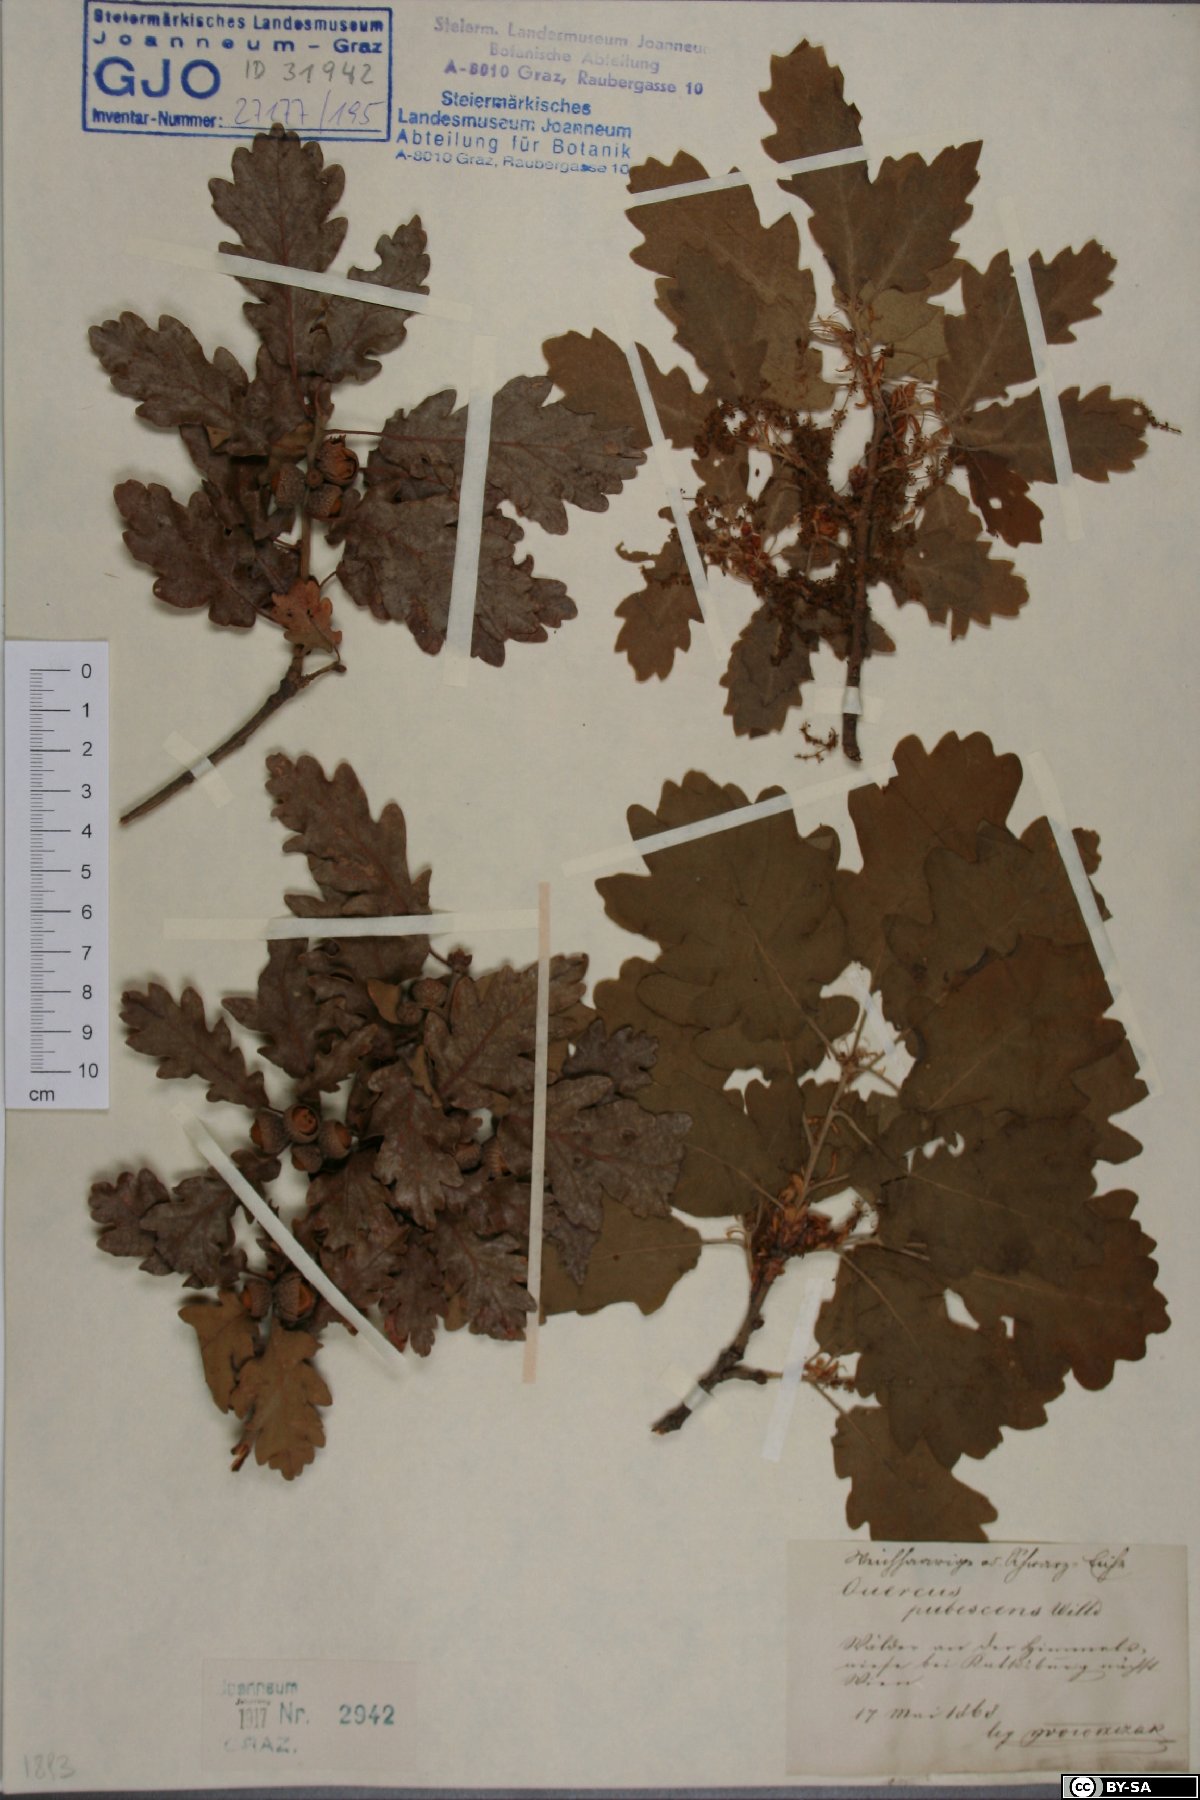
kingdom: Plantae
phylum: Tracheophyta
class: Magnoliopsida
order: Fagales
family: Fagaceae
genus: Quercus
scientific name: Quercus pubescens
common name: Downy oak
